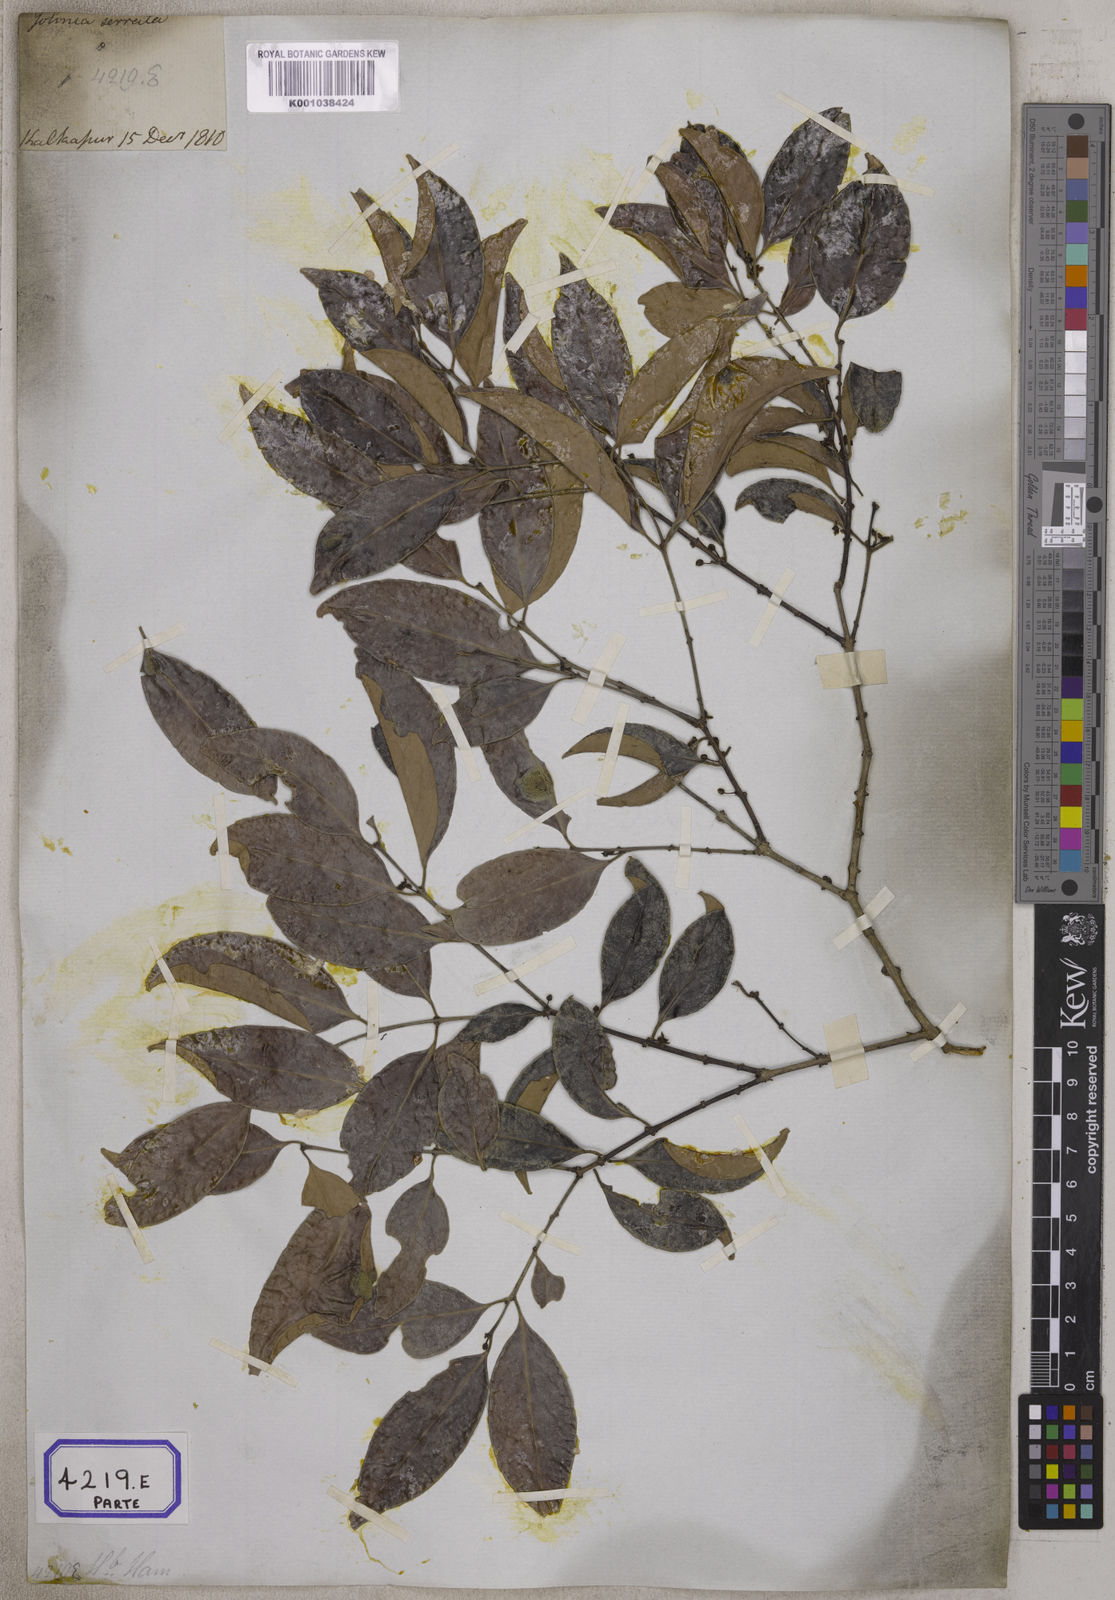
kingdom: Plantae
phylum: Tracheophyta
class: Magnoliopsida
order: Celastrales
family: Celastraceae
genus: Salacia
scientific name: Salacia chinensis
